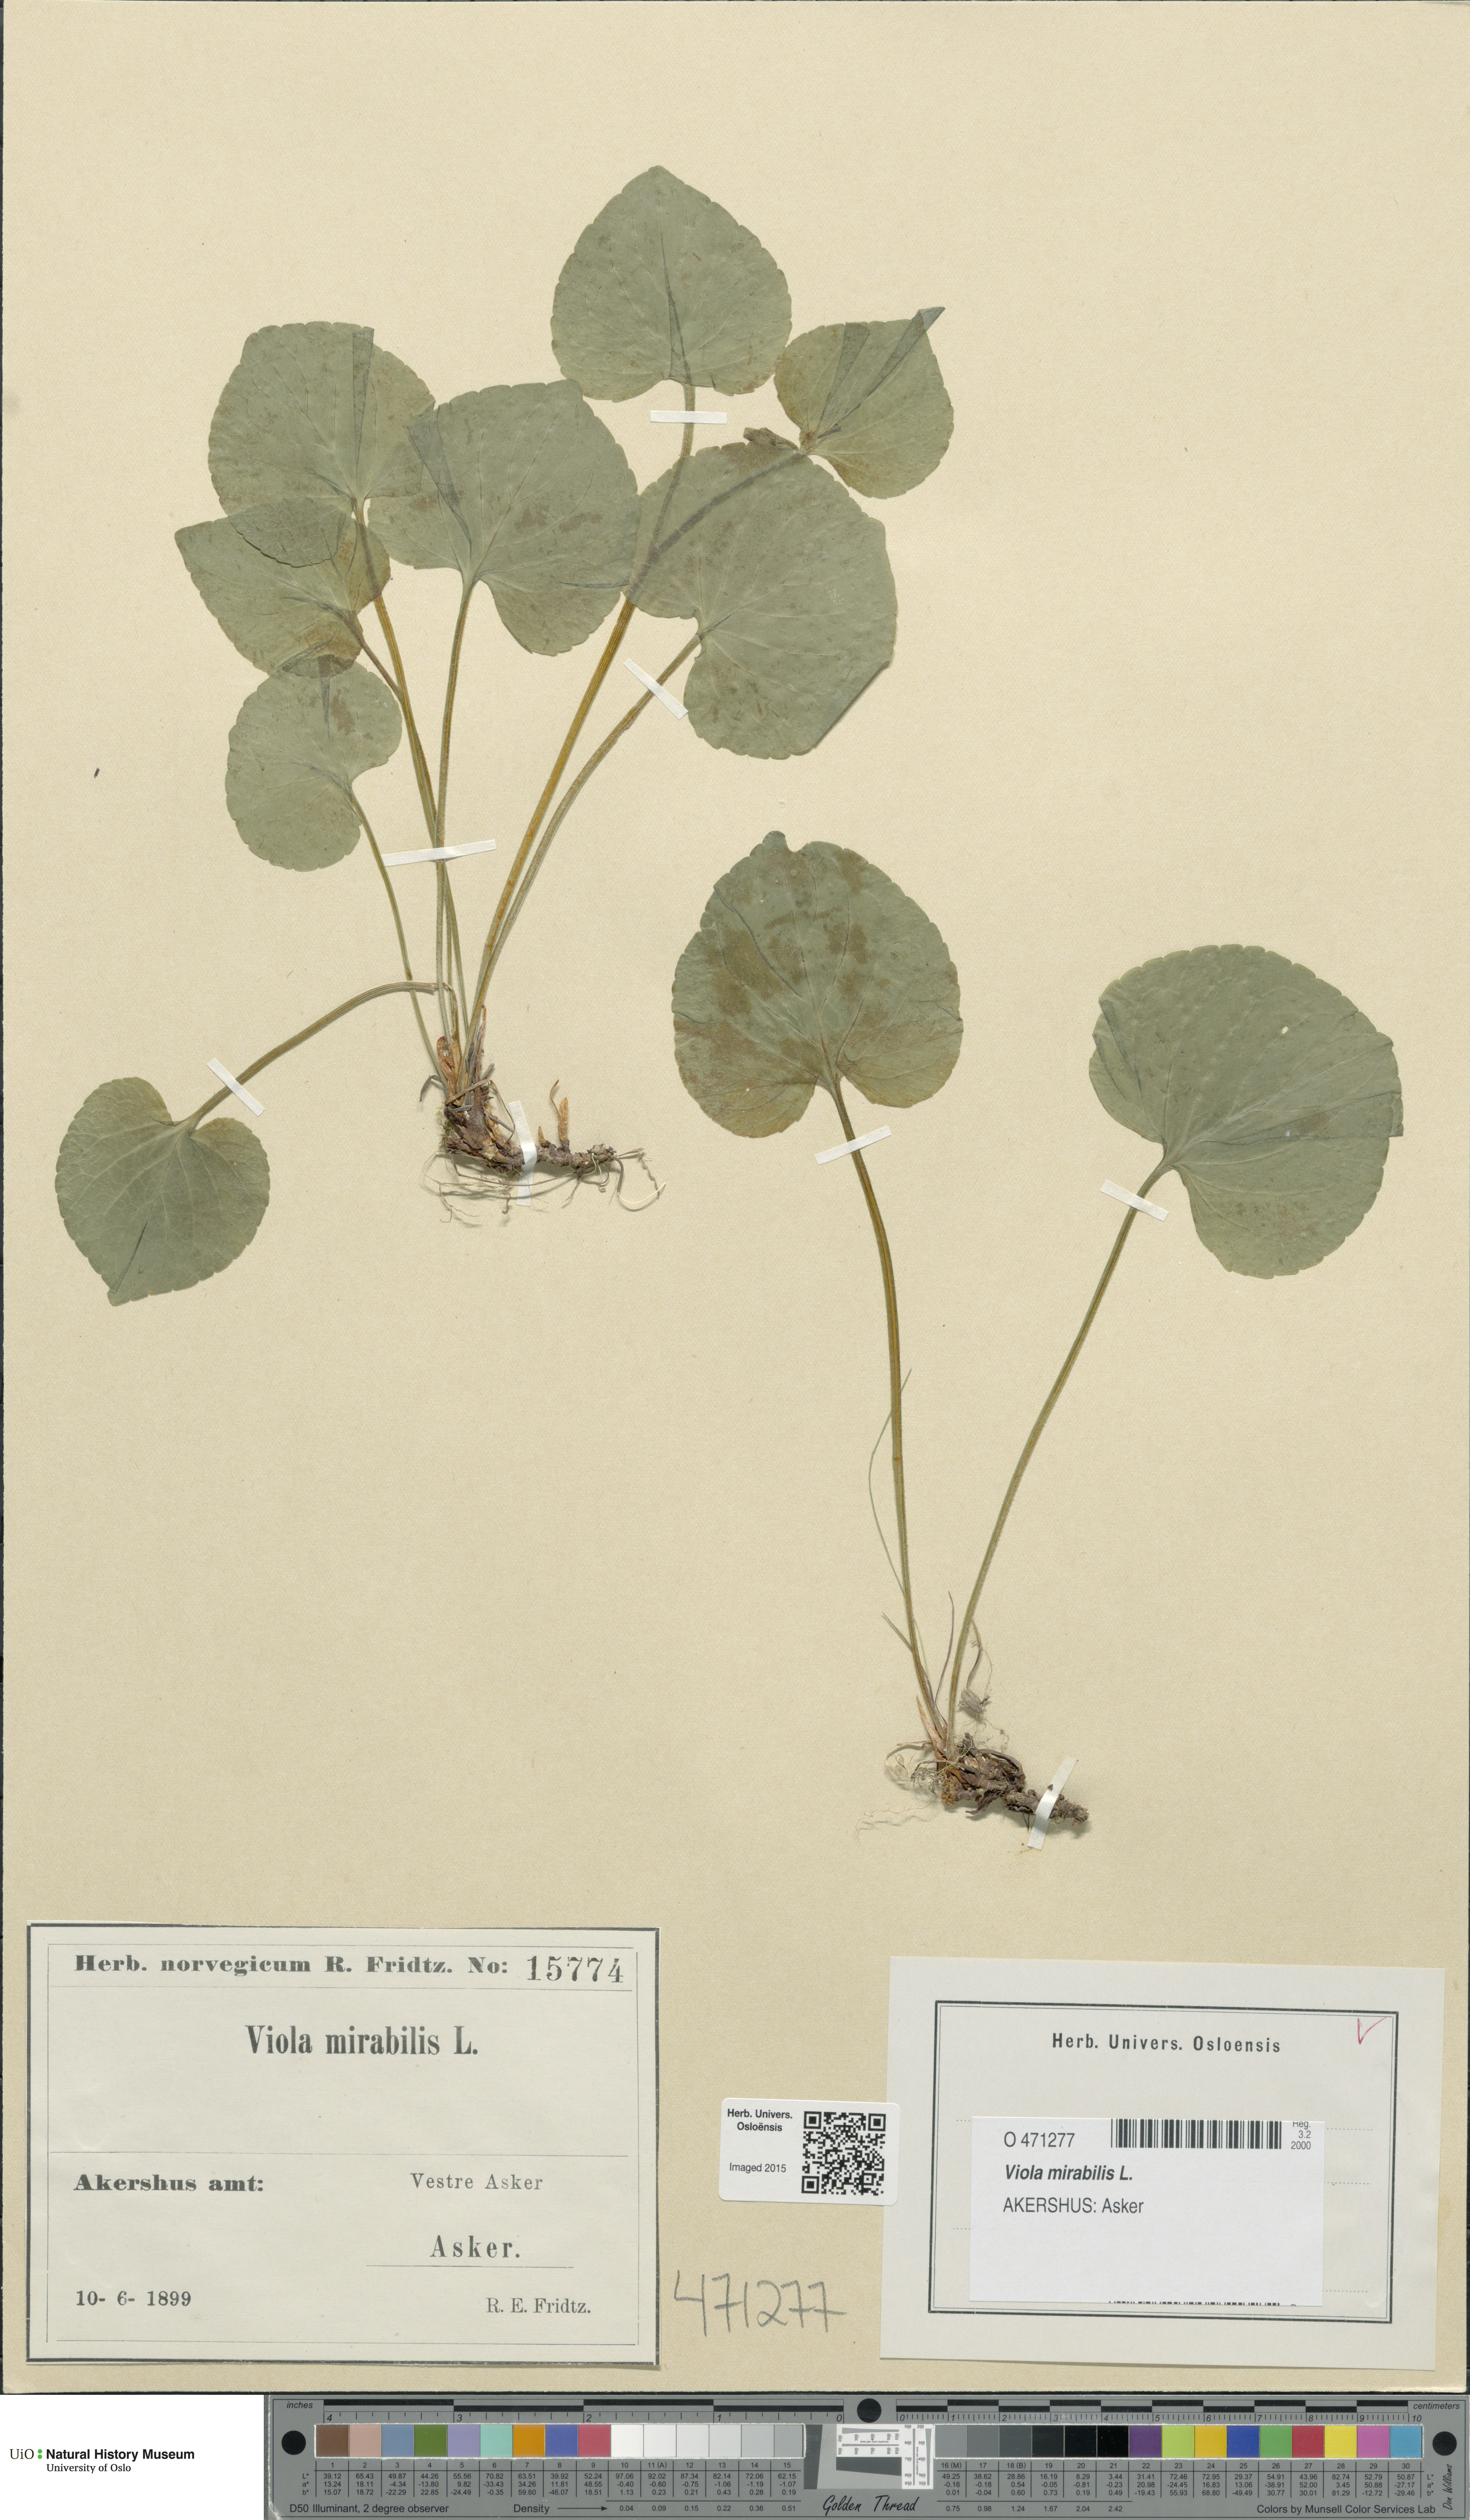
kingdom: Plantae
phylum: Tracheophyta
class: Magnoliopsida
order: Malpighiales
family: Violaceae
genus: Viola
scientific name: Viola mirabilis
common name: Wonder violet
